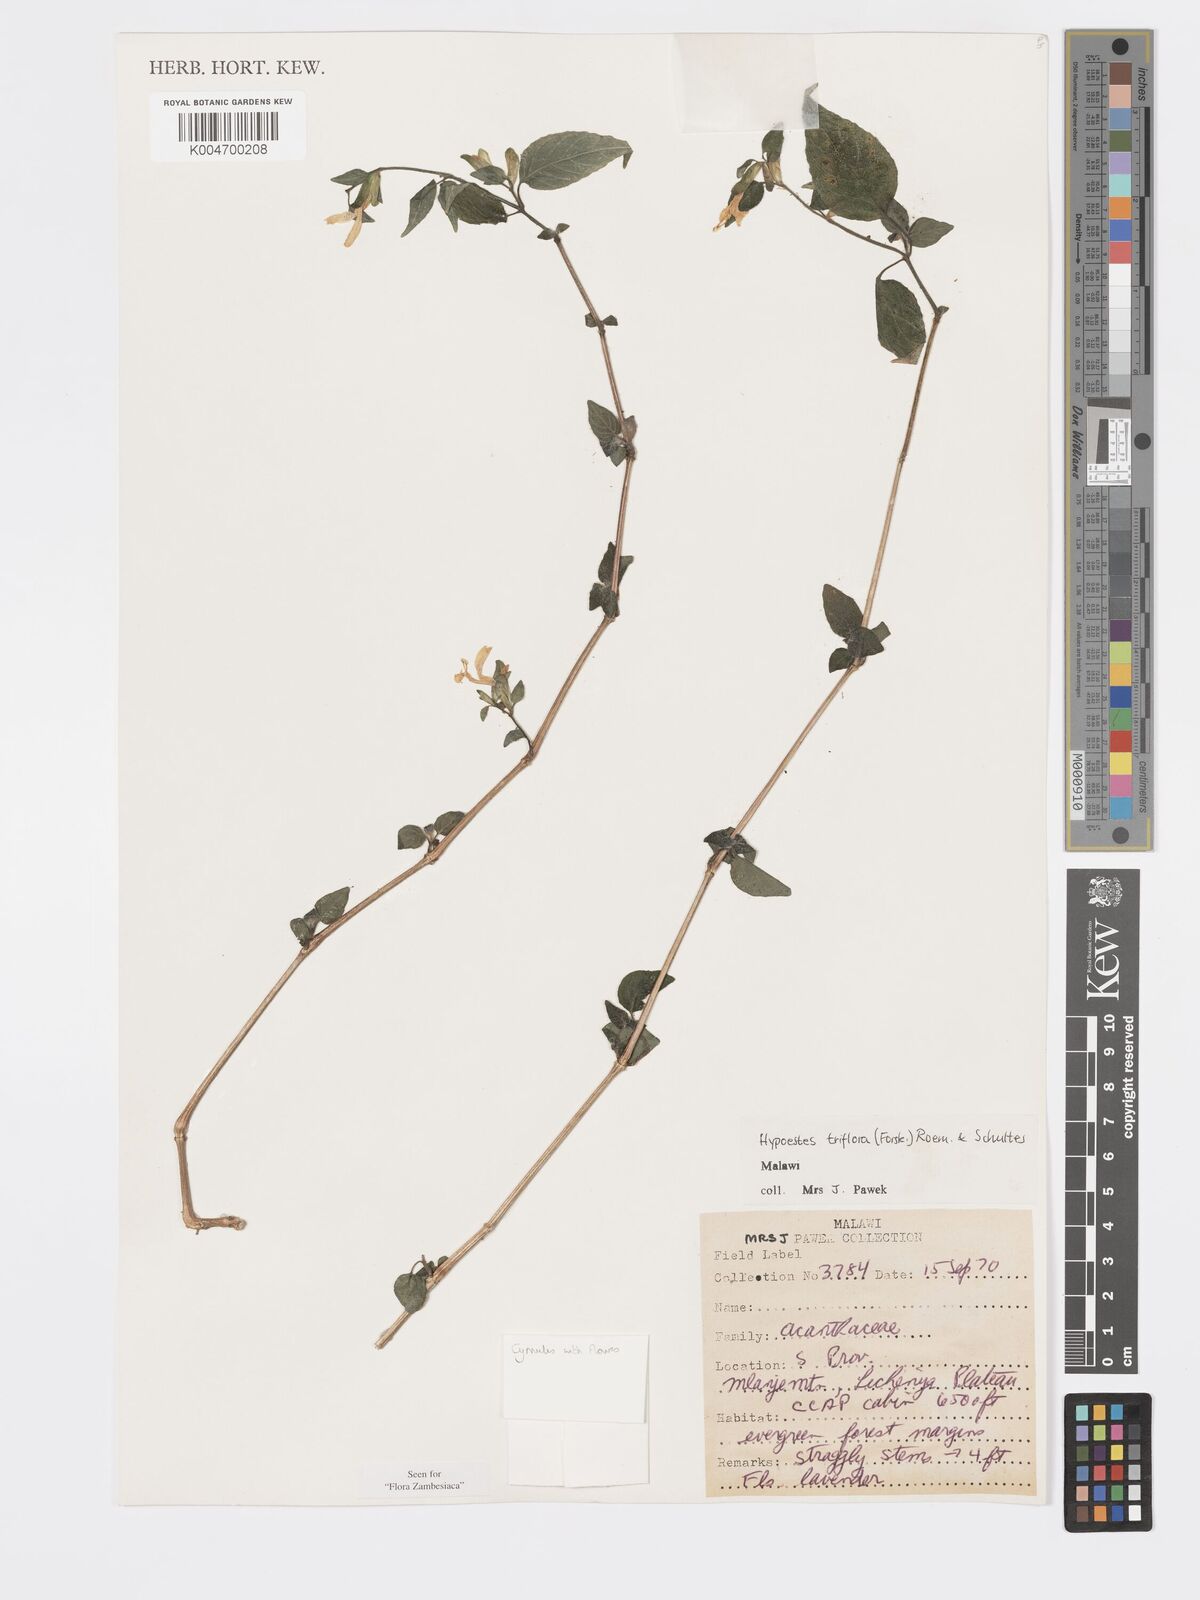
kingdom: Plantae
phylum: Tracheophyta
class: Magnoliopsida
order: Lamiales
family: Acanthaceae
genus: Hypoestes
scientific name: Hypoestes triflora
